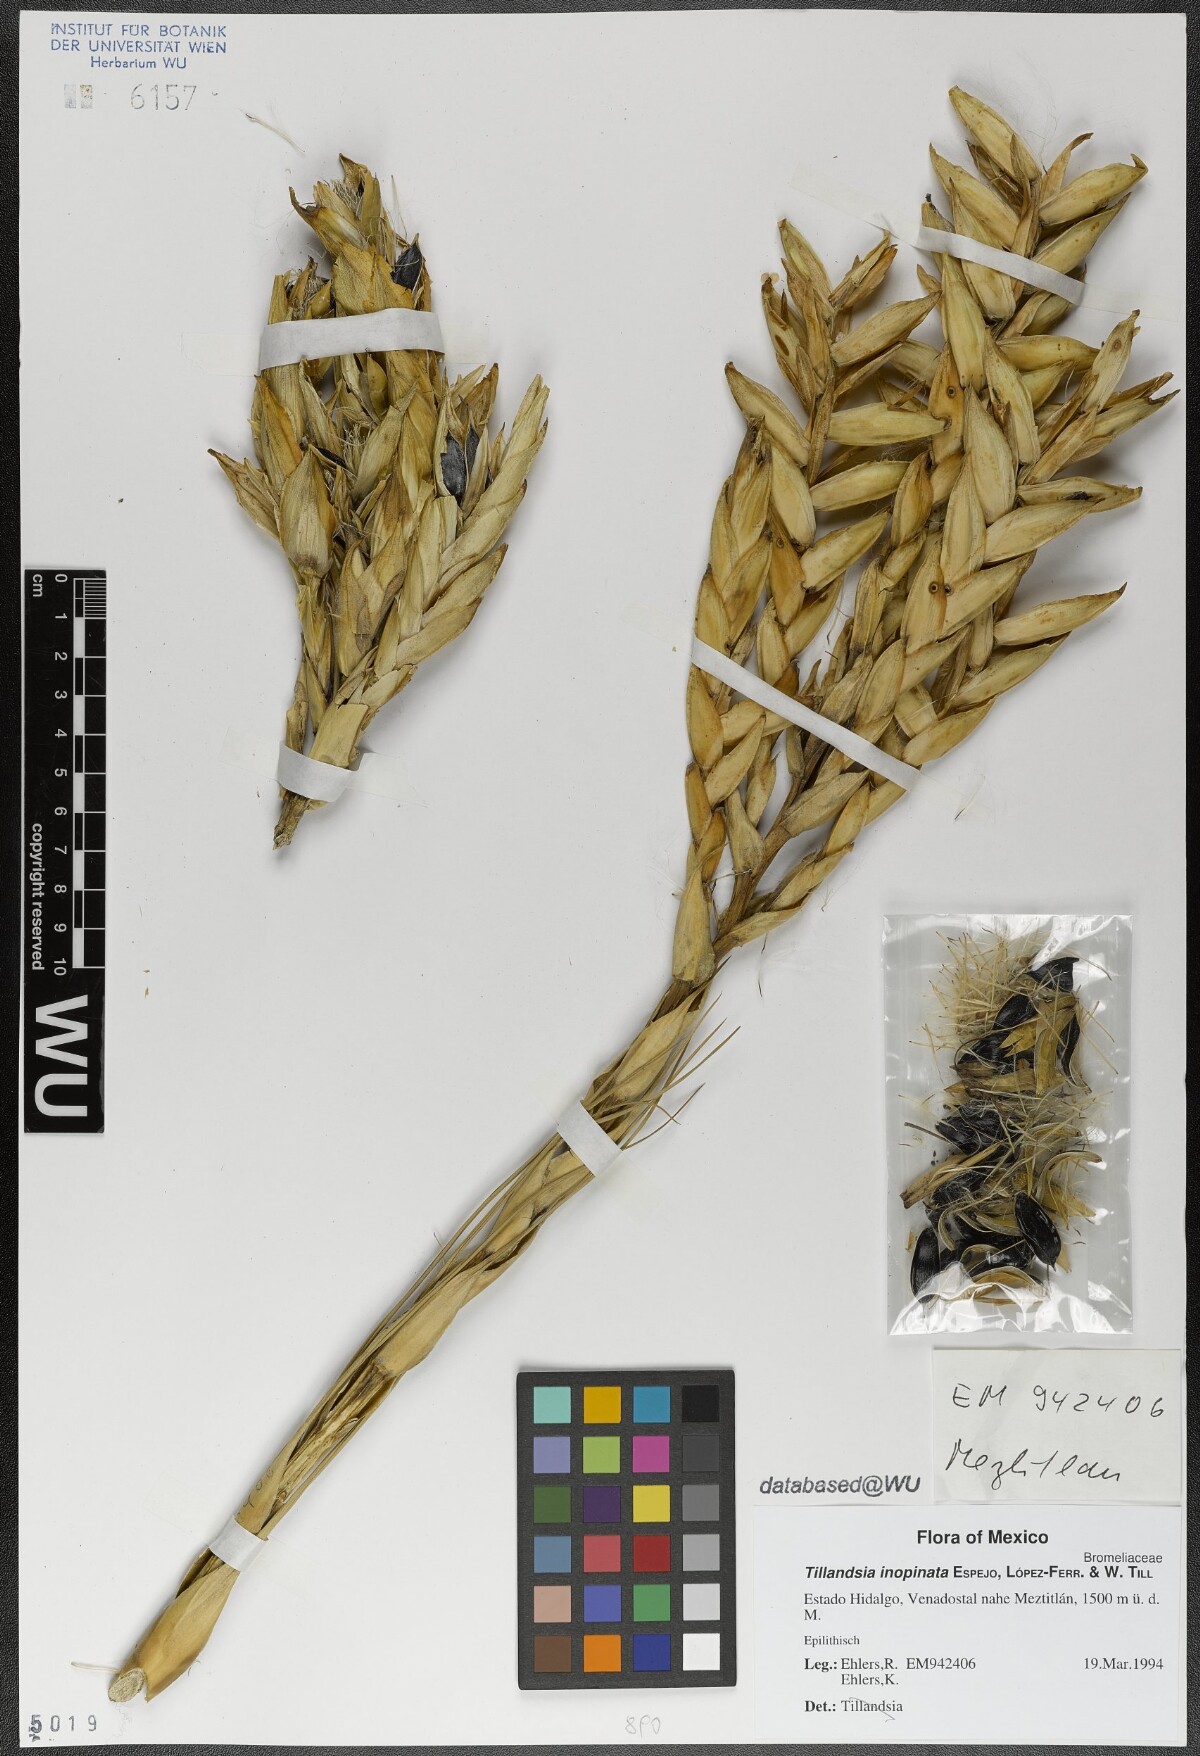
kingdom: Plantae
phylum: Tracheophyta
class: Liliopsida
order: Poales
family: Bromeliaceae
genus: Tillandsia
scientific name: Tillandsia inopinata
